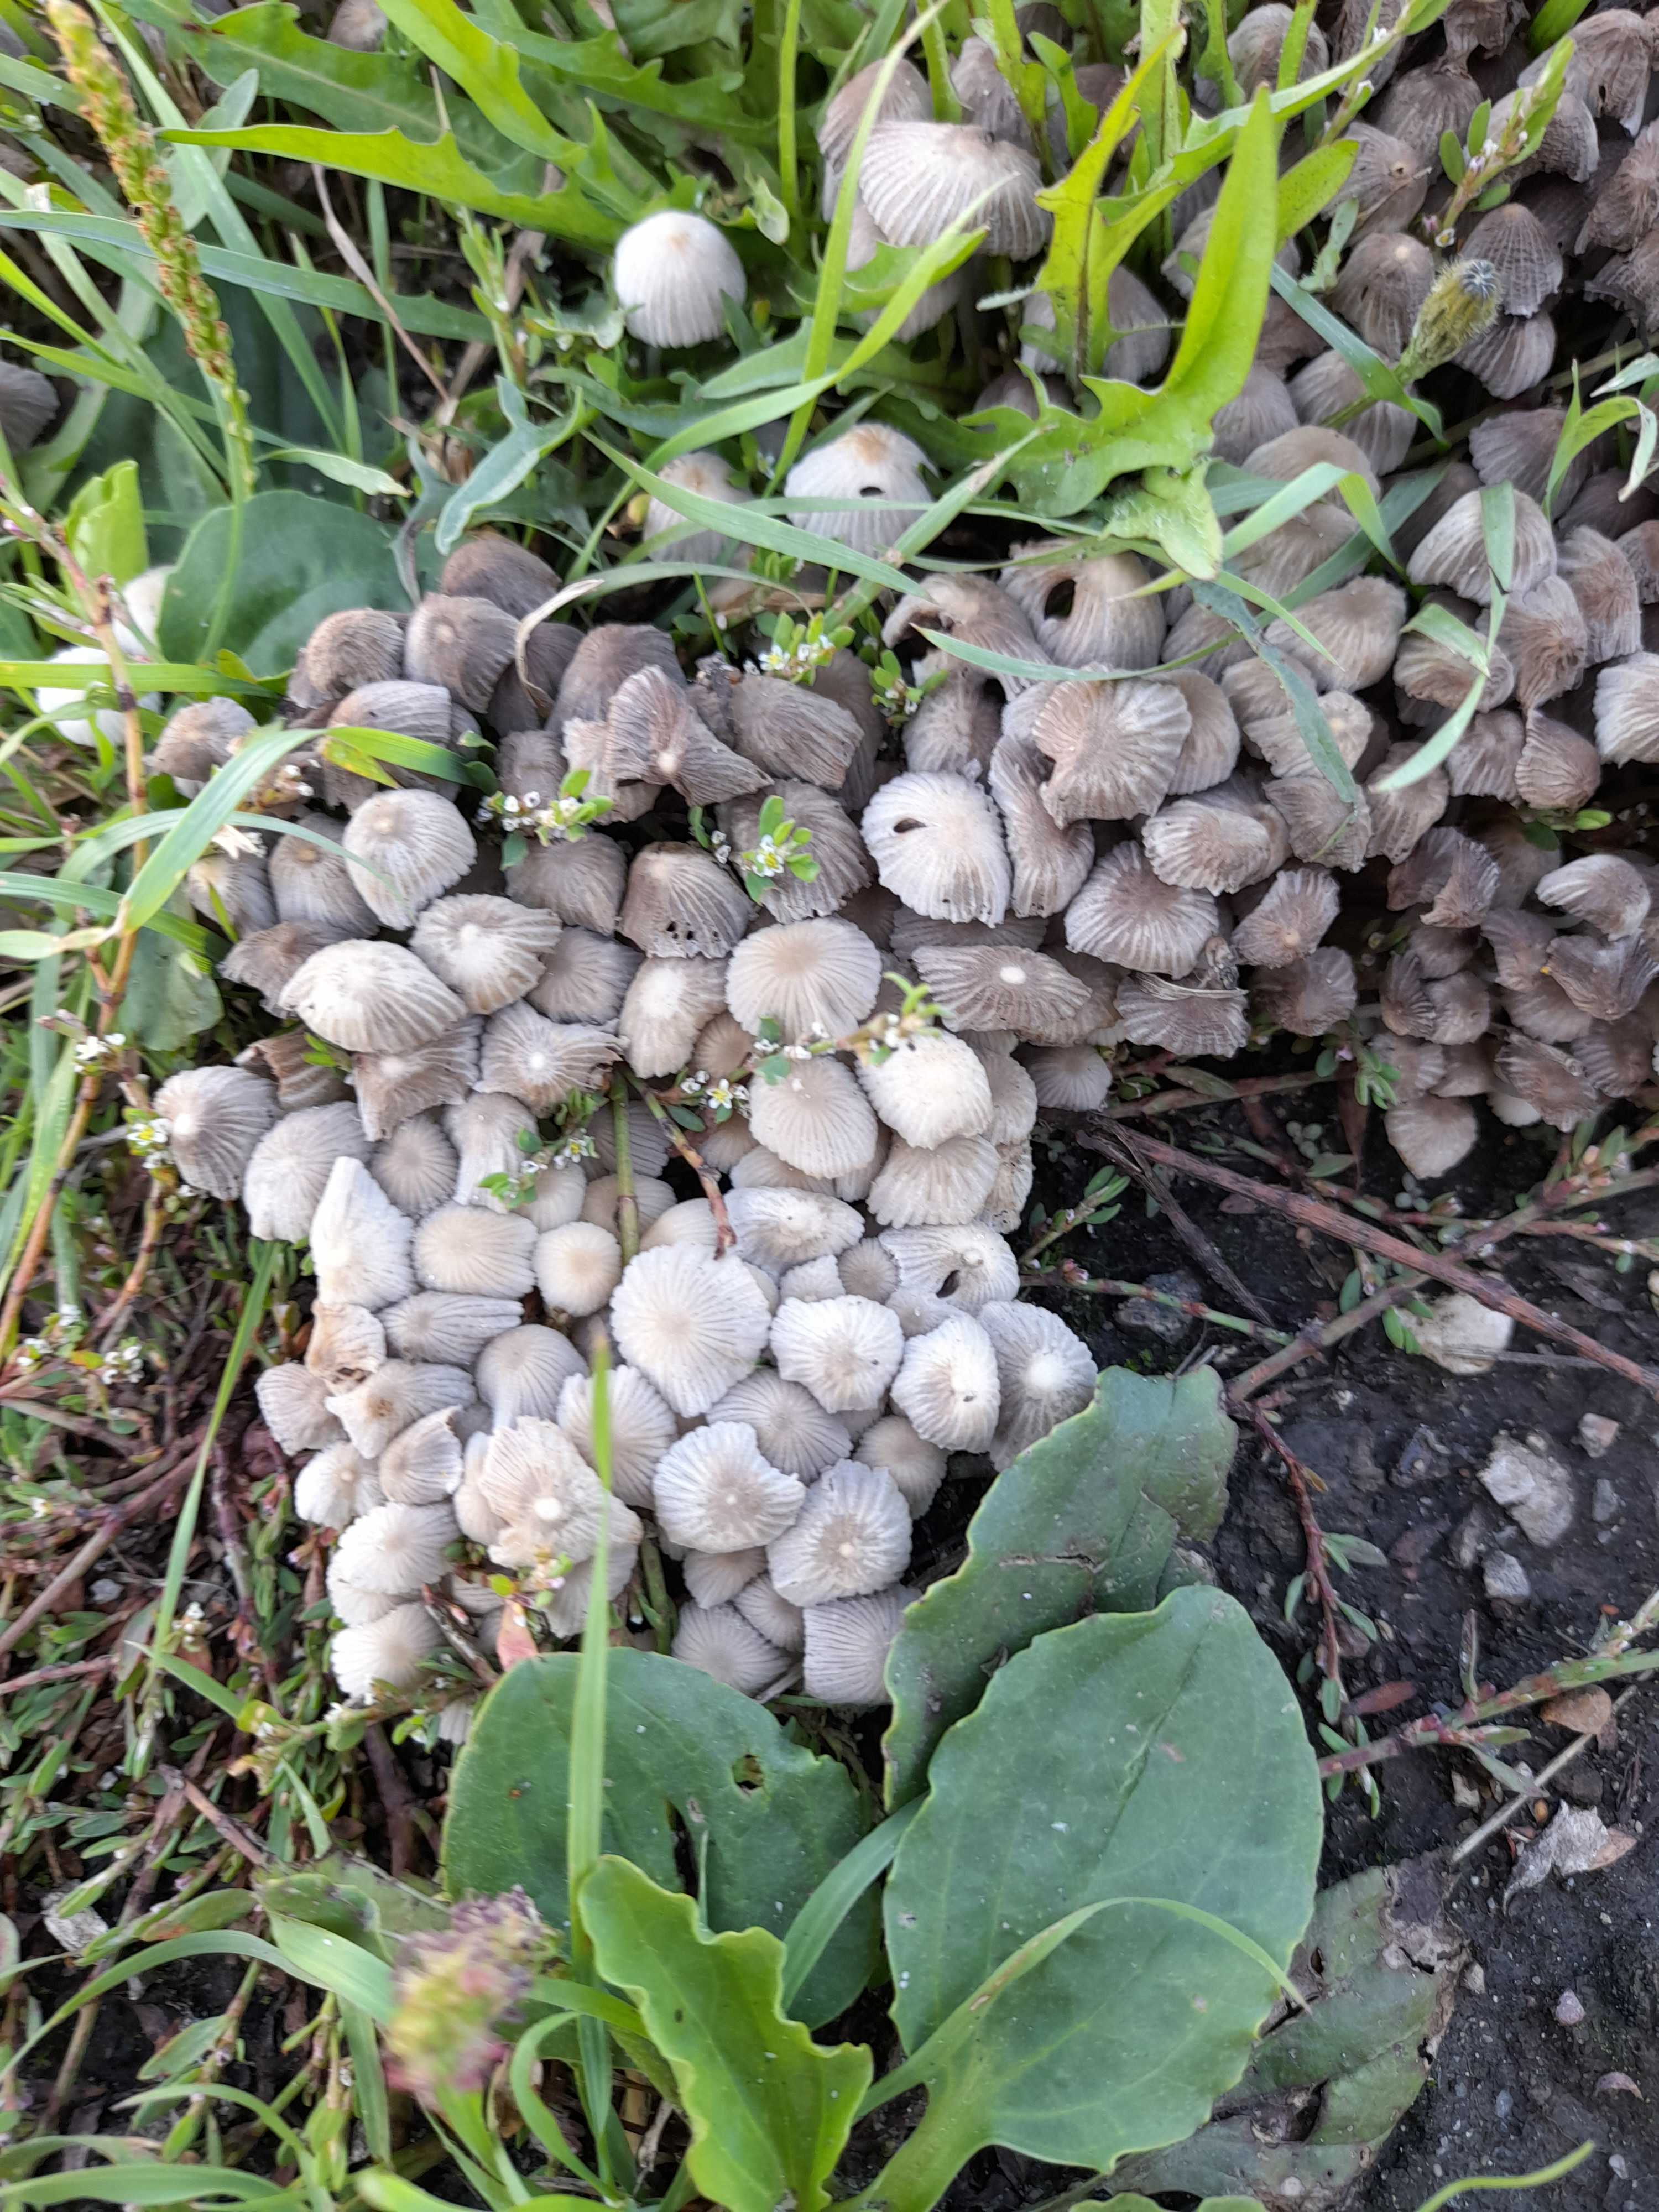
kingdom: Fungi
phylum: Basidiomycota
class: Agaricomycetes
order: Agaricales
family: Psathyrellaceae
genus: Coprinellus
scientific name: Coprinellus disseminatus
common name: bredsået blækhat
